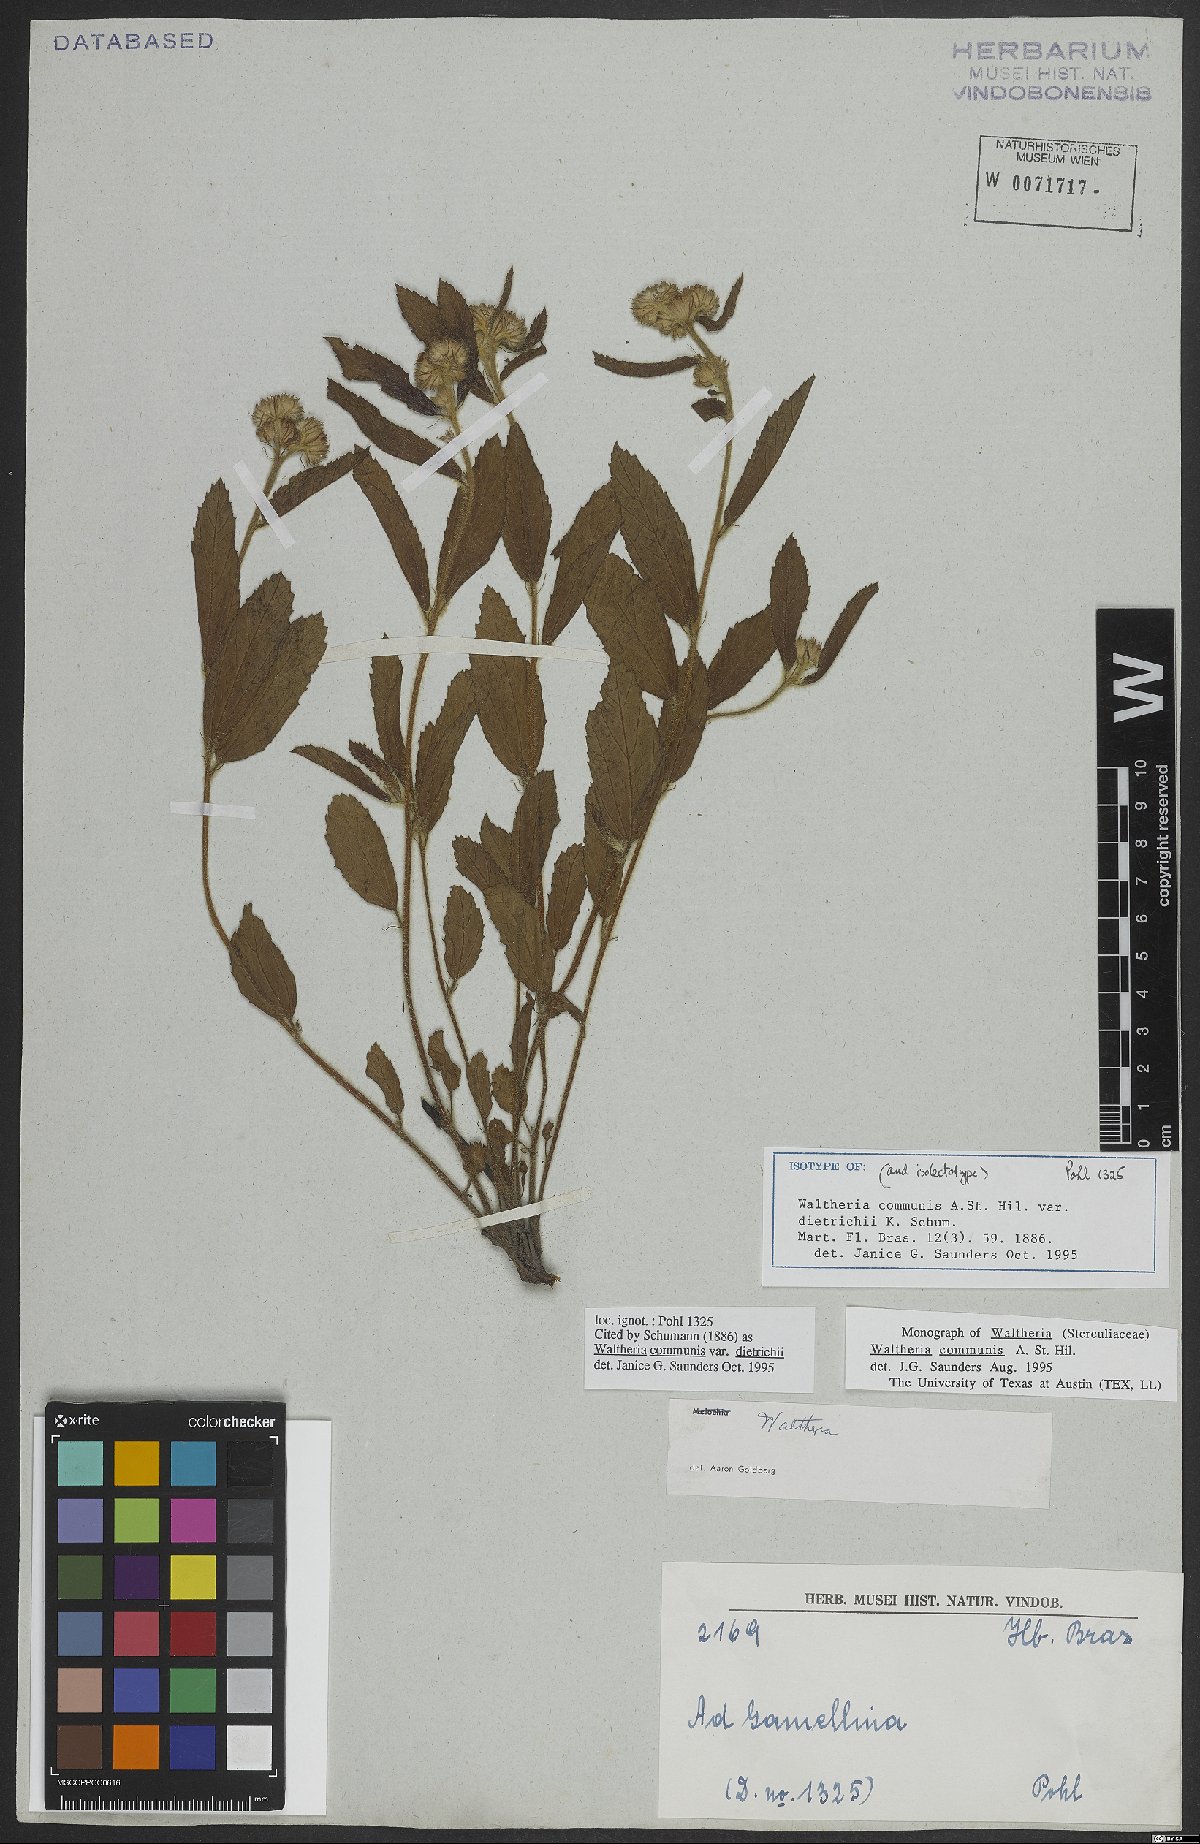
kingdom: Plantae
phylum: Tracheophyta
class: Magnoliopsida
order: Malvales
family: Malvaceae
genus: Waltheria
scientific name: Waltheria communis
